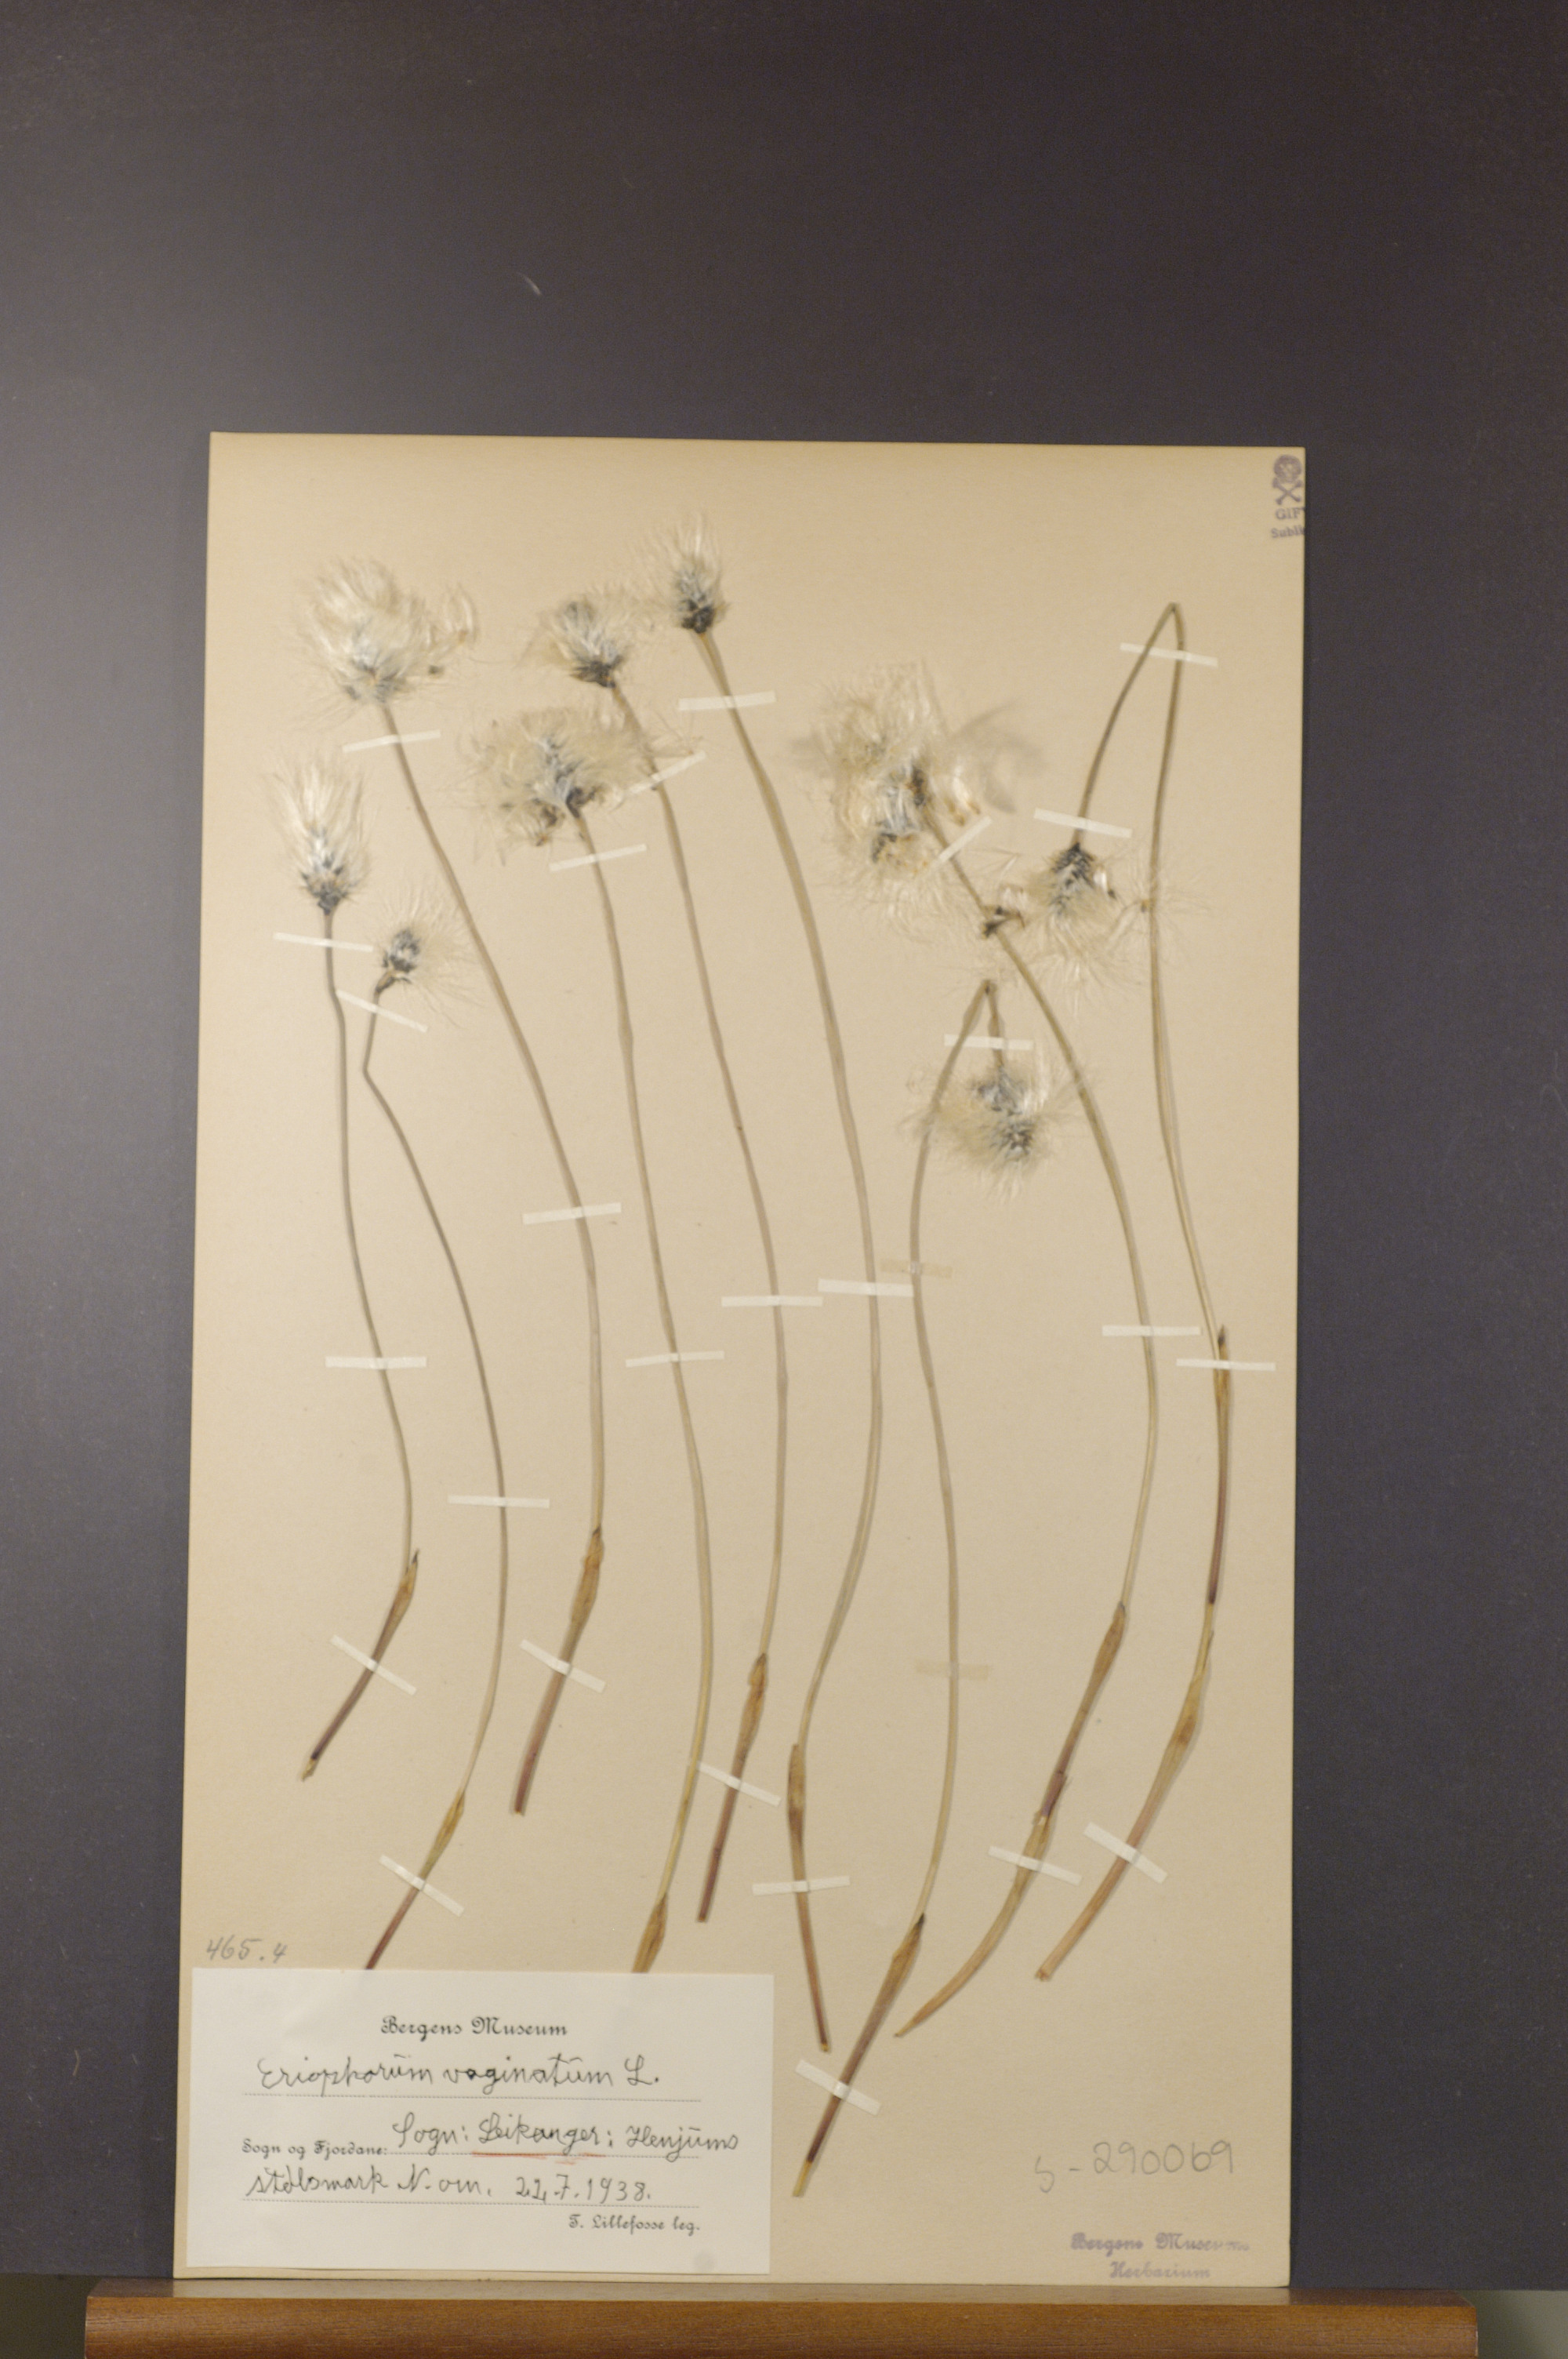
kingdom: Plantae
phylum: Tracheophyta
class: Liliopsida
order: Poales
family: Cyperaceae
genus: Eriophorum
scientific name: Eriophorum vaginatum
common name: Hare's-tail cottongrass
